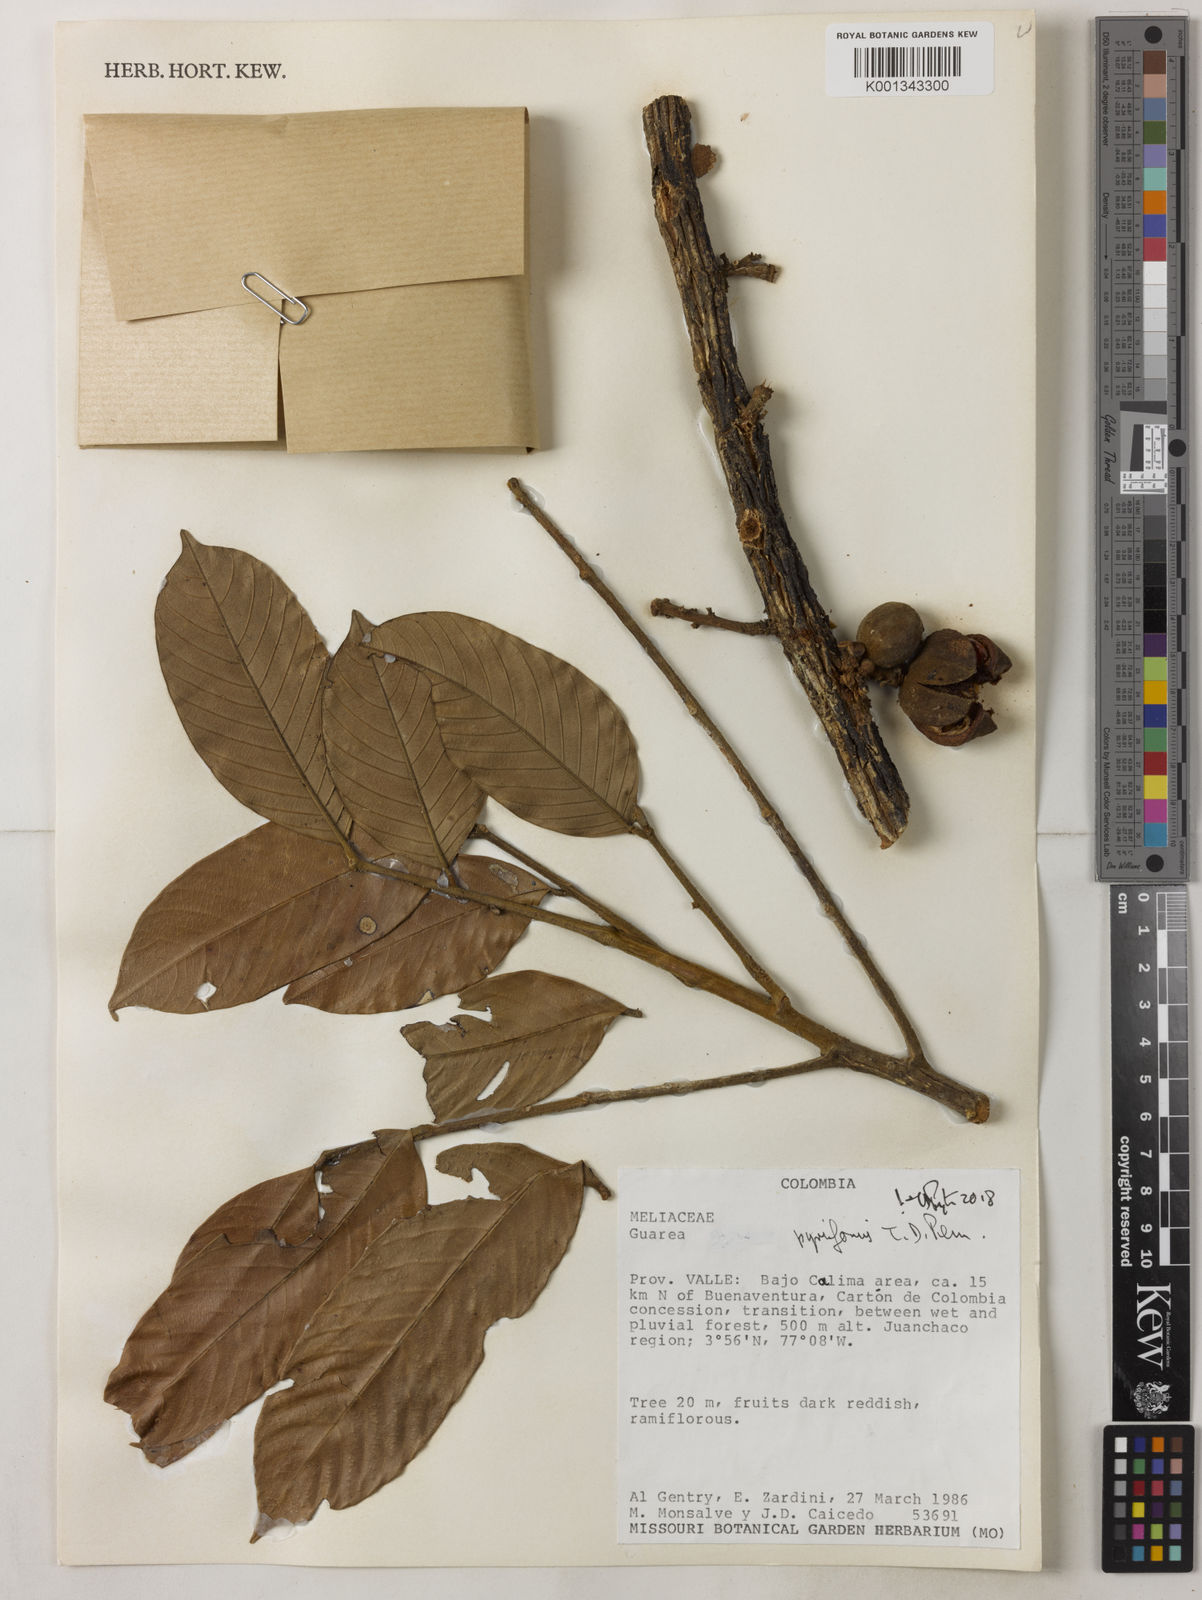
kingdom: Plantae
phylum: Tracheophyta
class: Magnoliopsida
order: Sapindales
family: Meliaceae
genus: Guarea
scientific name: Guarea pyriformis
